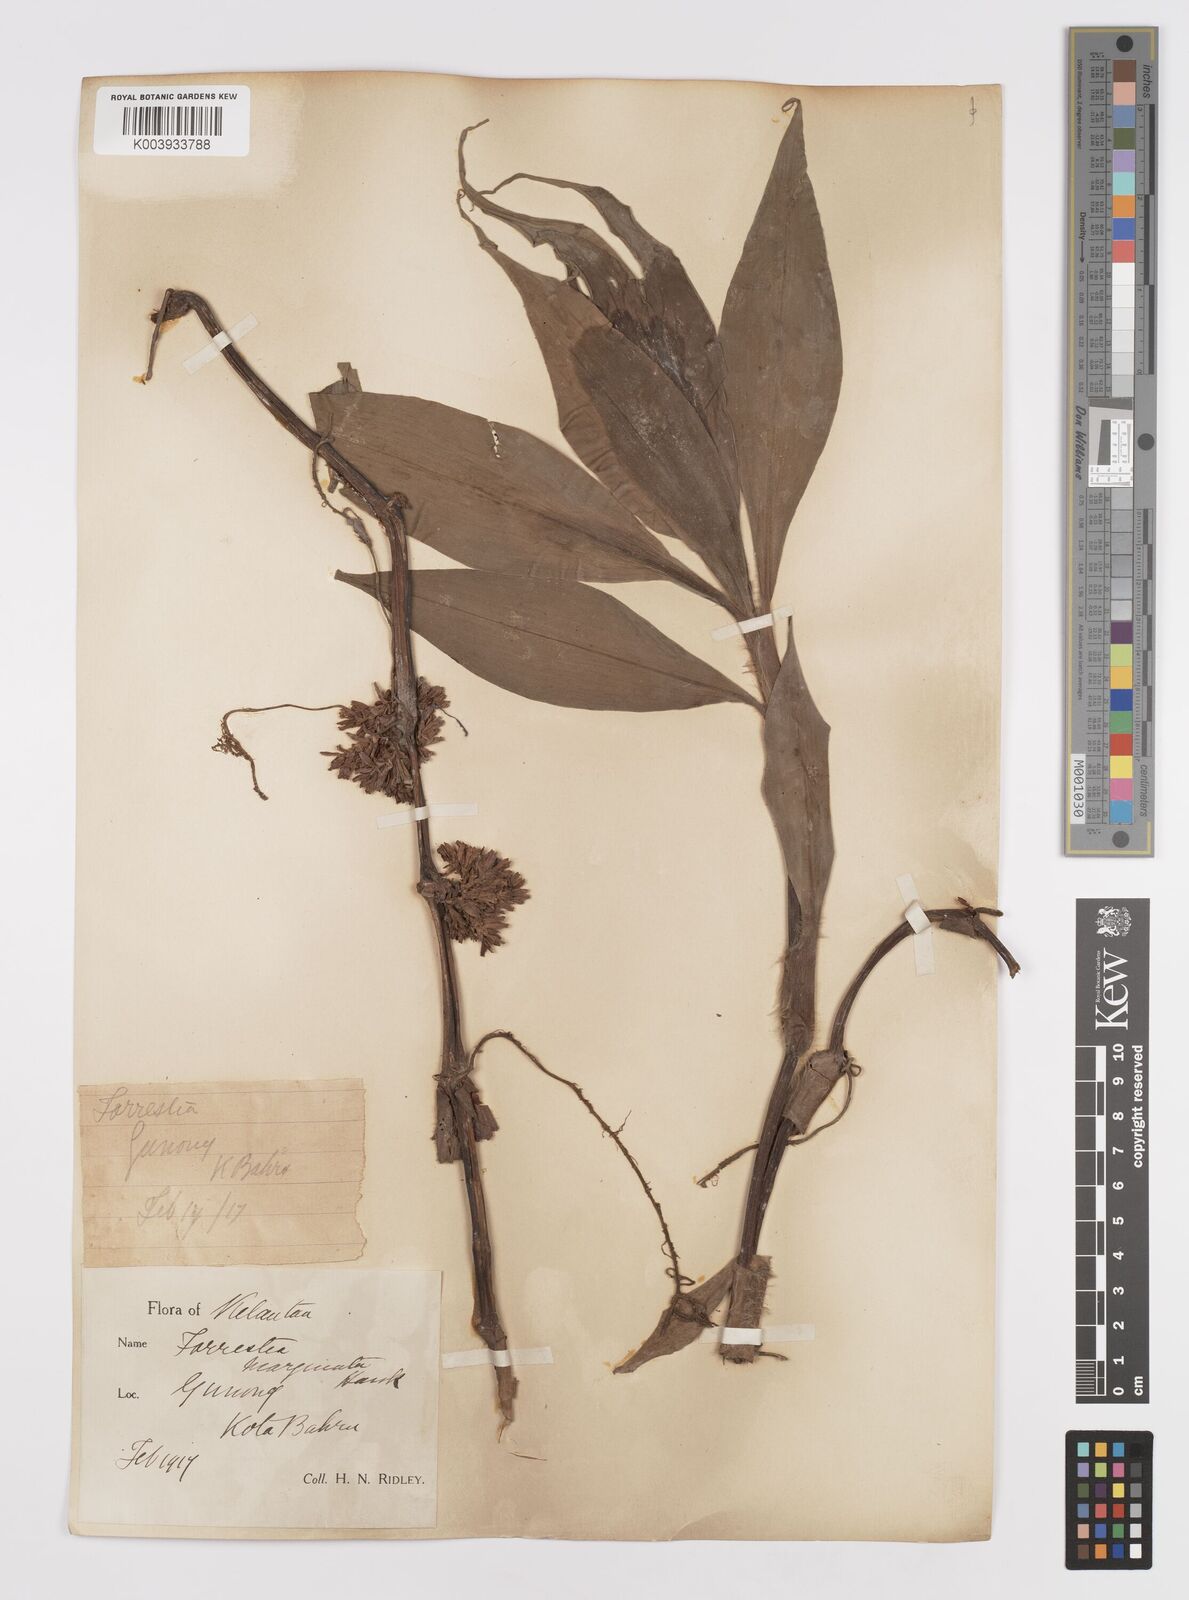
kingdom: Plantae
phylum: Tracheophyta
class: Liliopsida
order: Commelinales
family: Commelinaceae
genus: Amischotolype
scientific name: Amischotolype marginata
